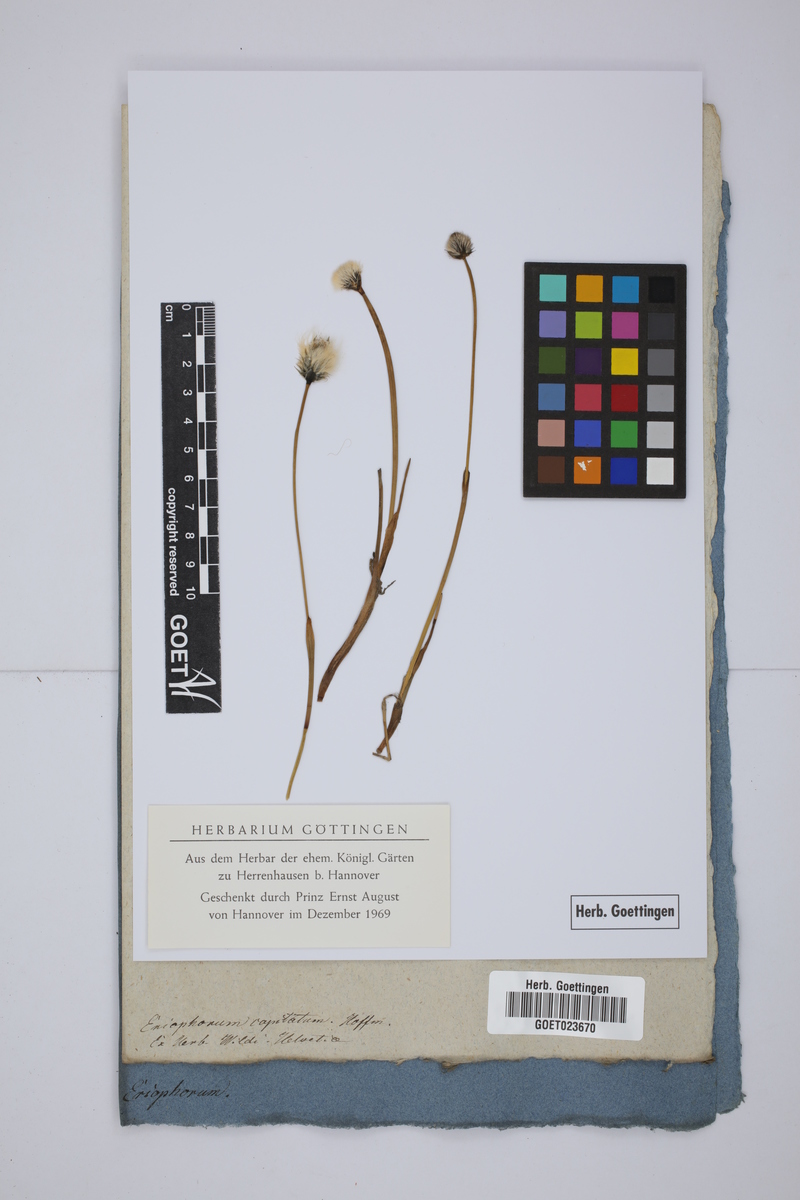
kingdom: Plantae
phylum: Tracheophyta
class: Liliopsida
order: Poales
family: Cyperaceae
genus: Eriophorum
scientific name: Eriophorum scheuchzeri
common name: Scheuchzer's cottongrass
